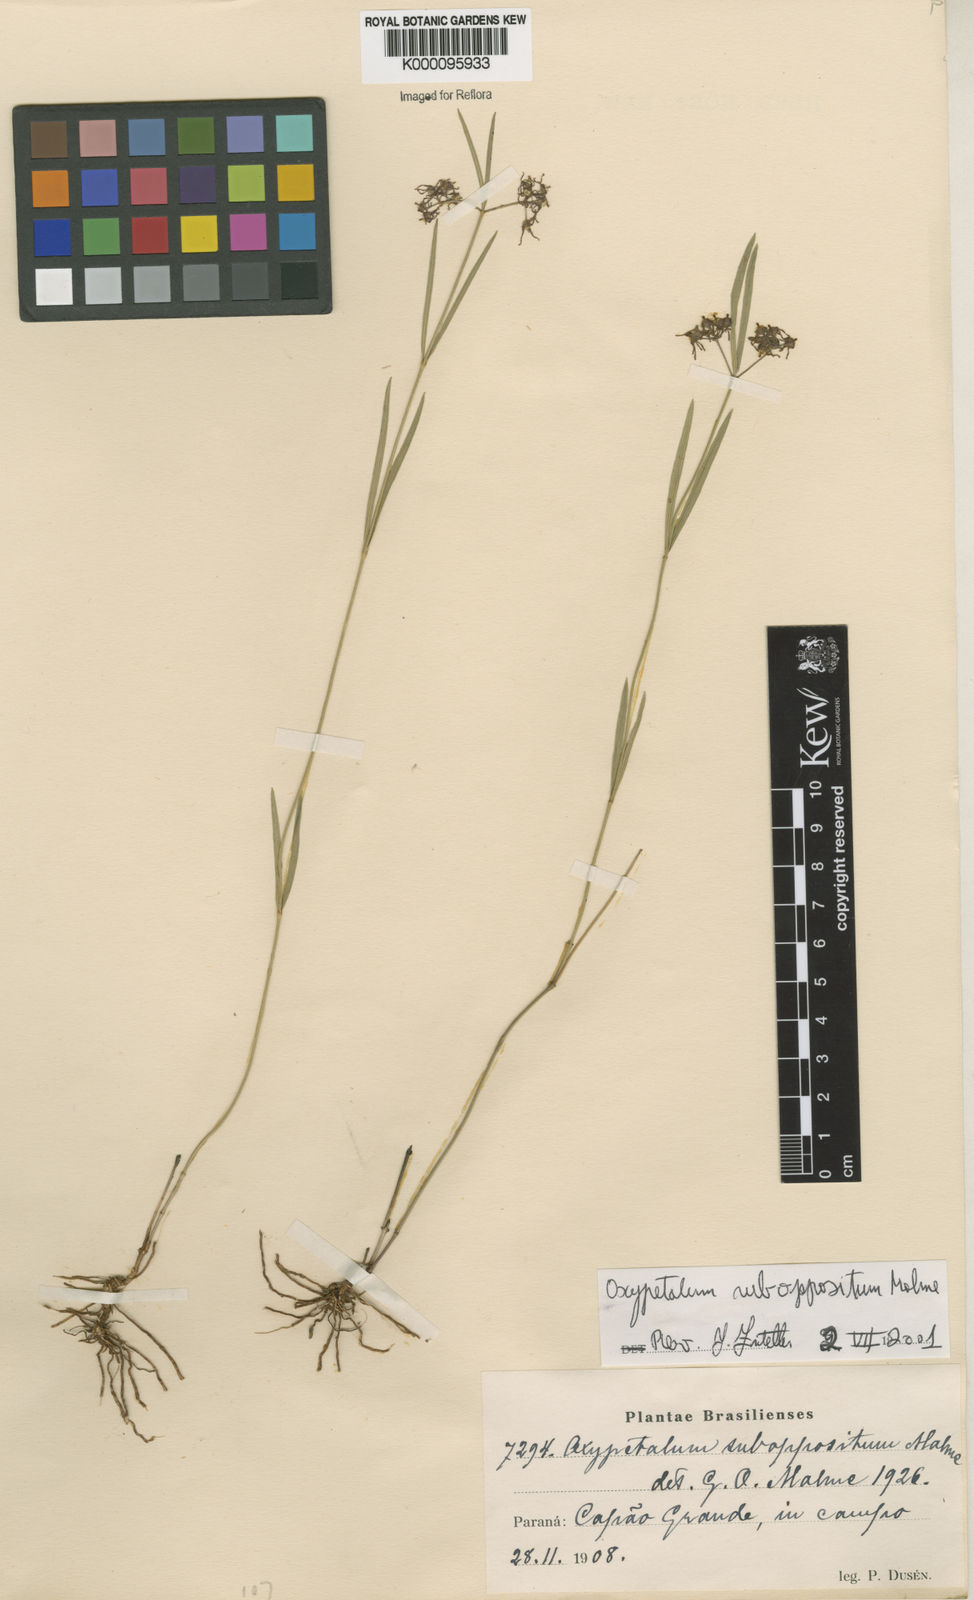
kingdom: Plantae
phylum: Tracheophyta
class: Magnoliopsida
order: Gentianales
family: Apocynaceae
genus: Oxypetalum
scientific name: Oxypetalum suboppositum
